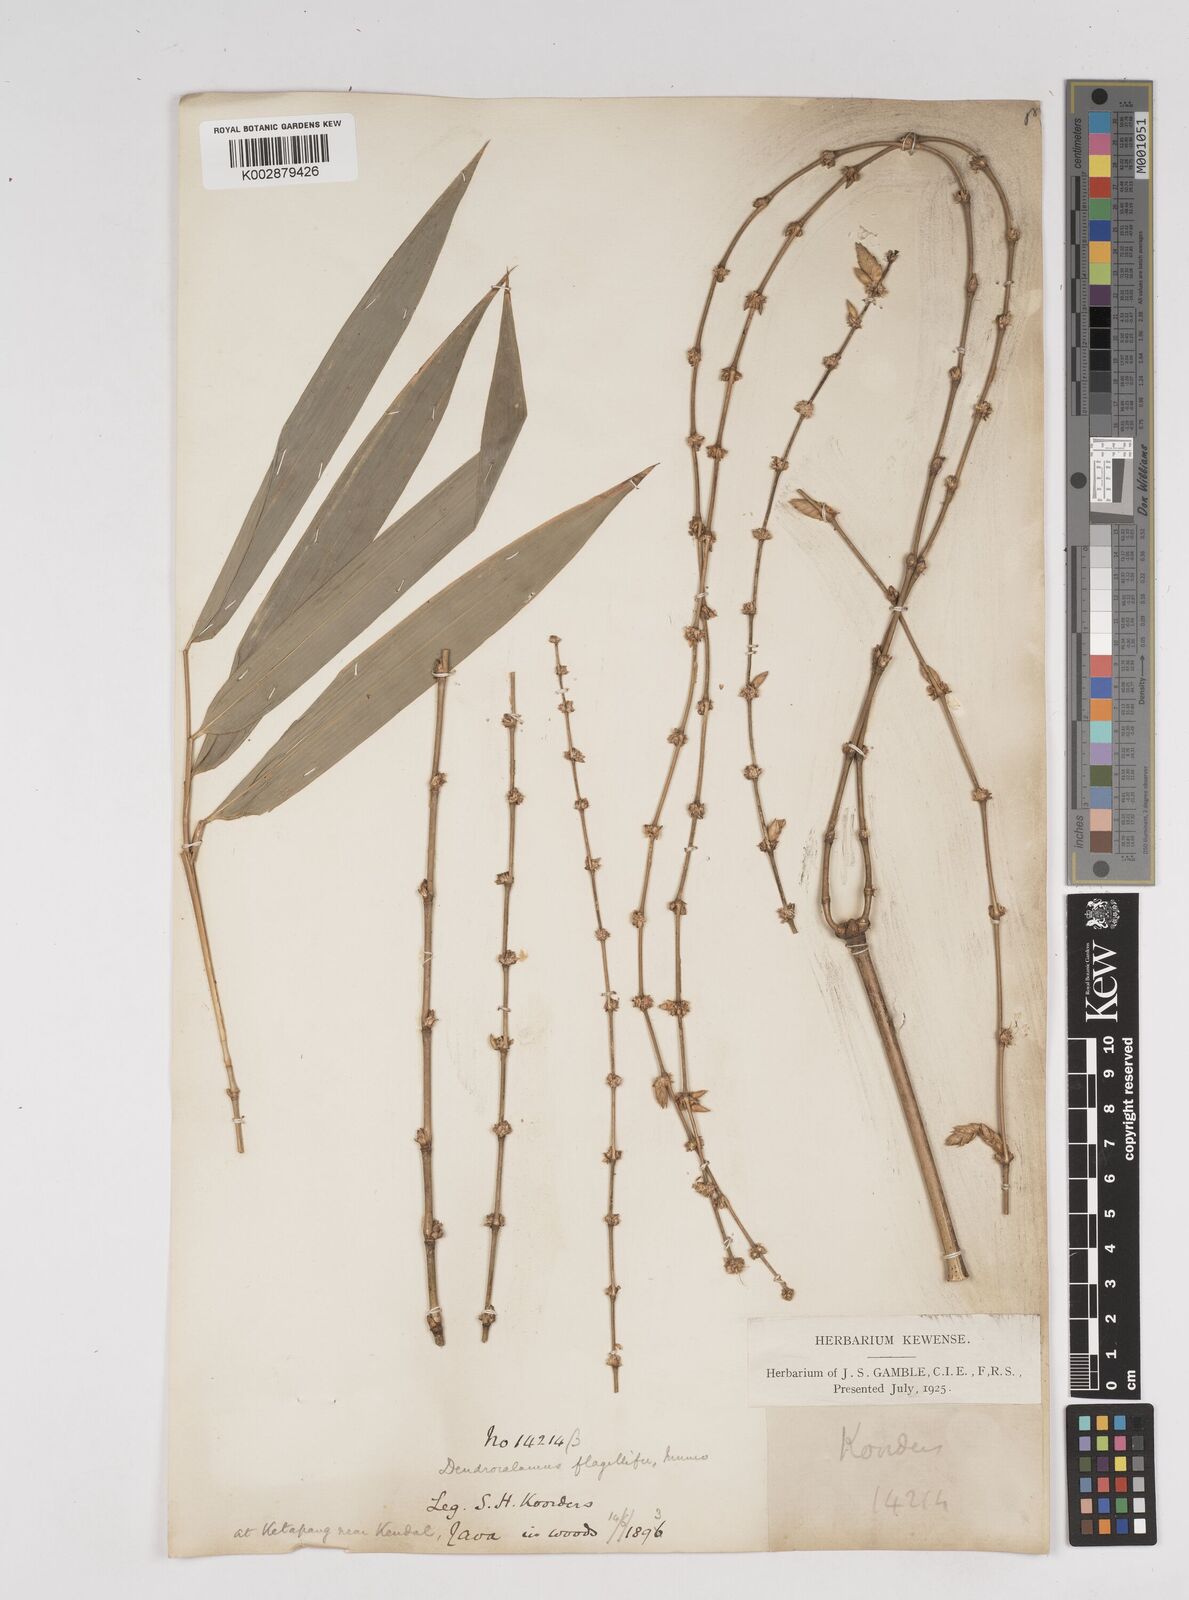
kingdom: Plantae
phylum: Tracheophyta
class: Liliopsida
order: Poales
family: Poaceae
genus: Dendrocalamus
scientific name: Dendrocalamus asper
